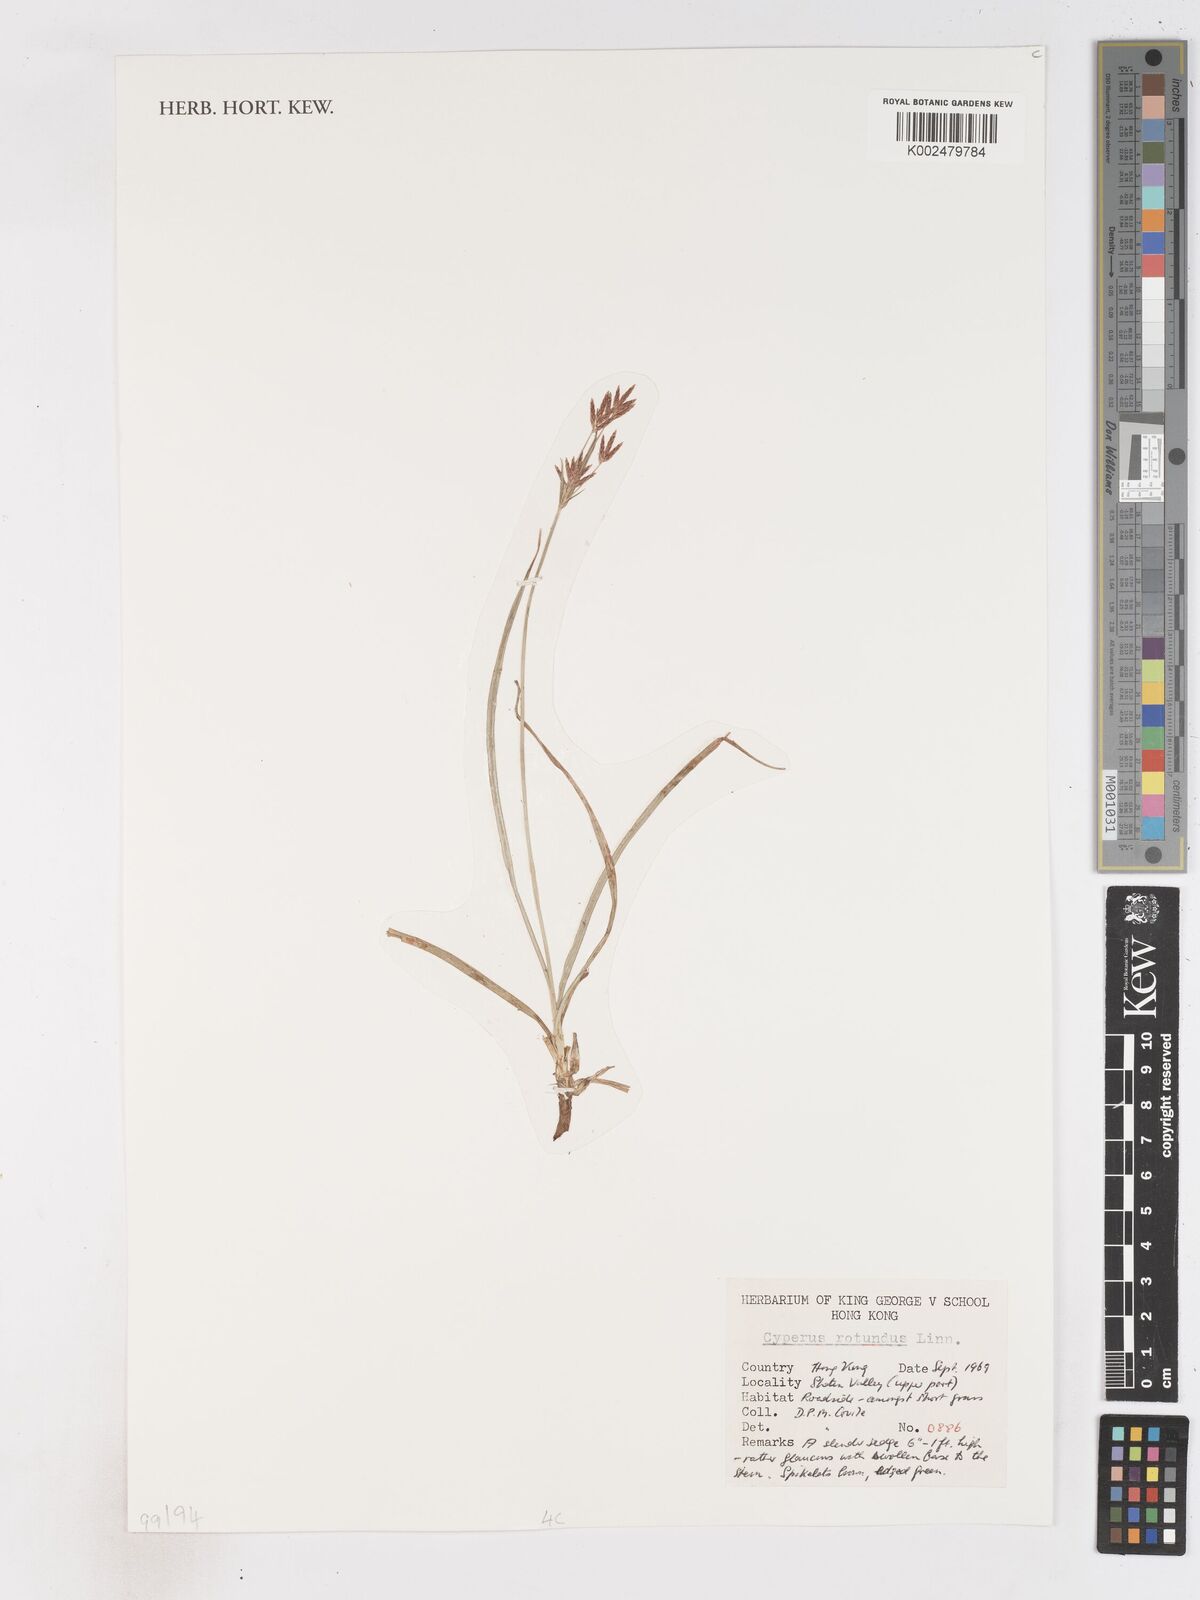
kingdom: Plantae
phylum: Tracheophyta
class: Liliopsida
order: Poales
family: Cyperaceae
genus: Cyperus
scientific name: Cyperus rotundus
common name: Nutgrass
